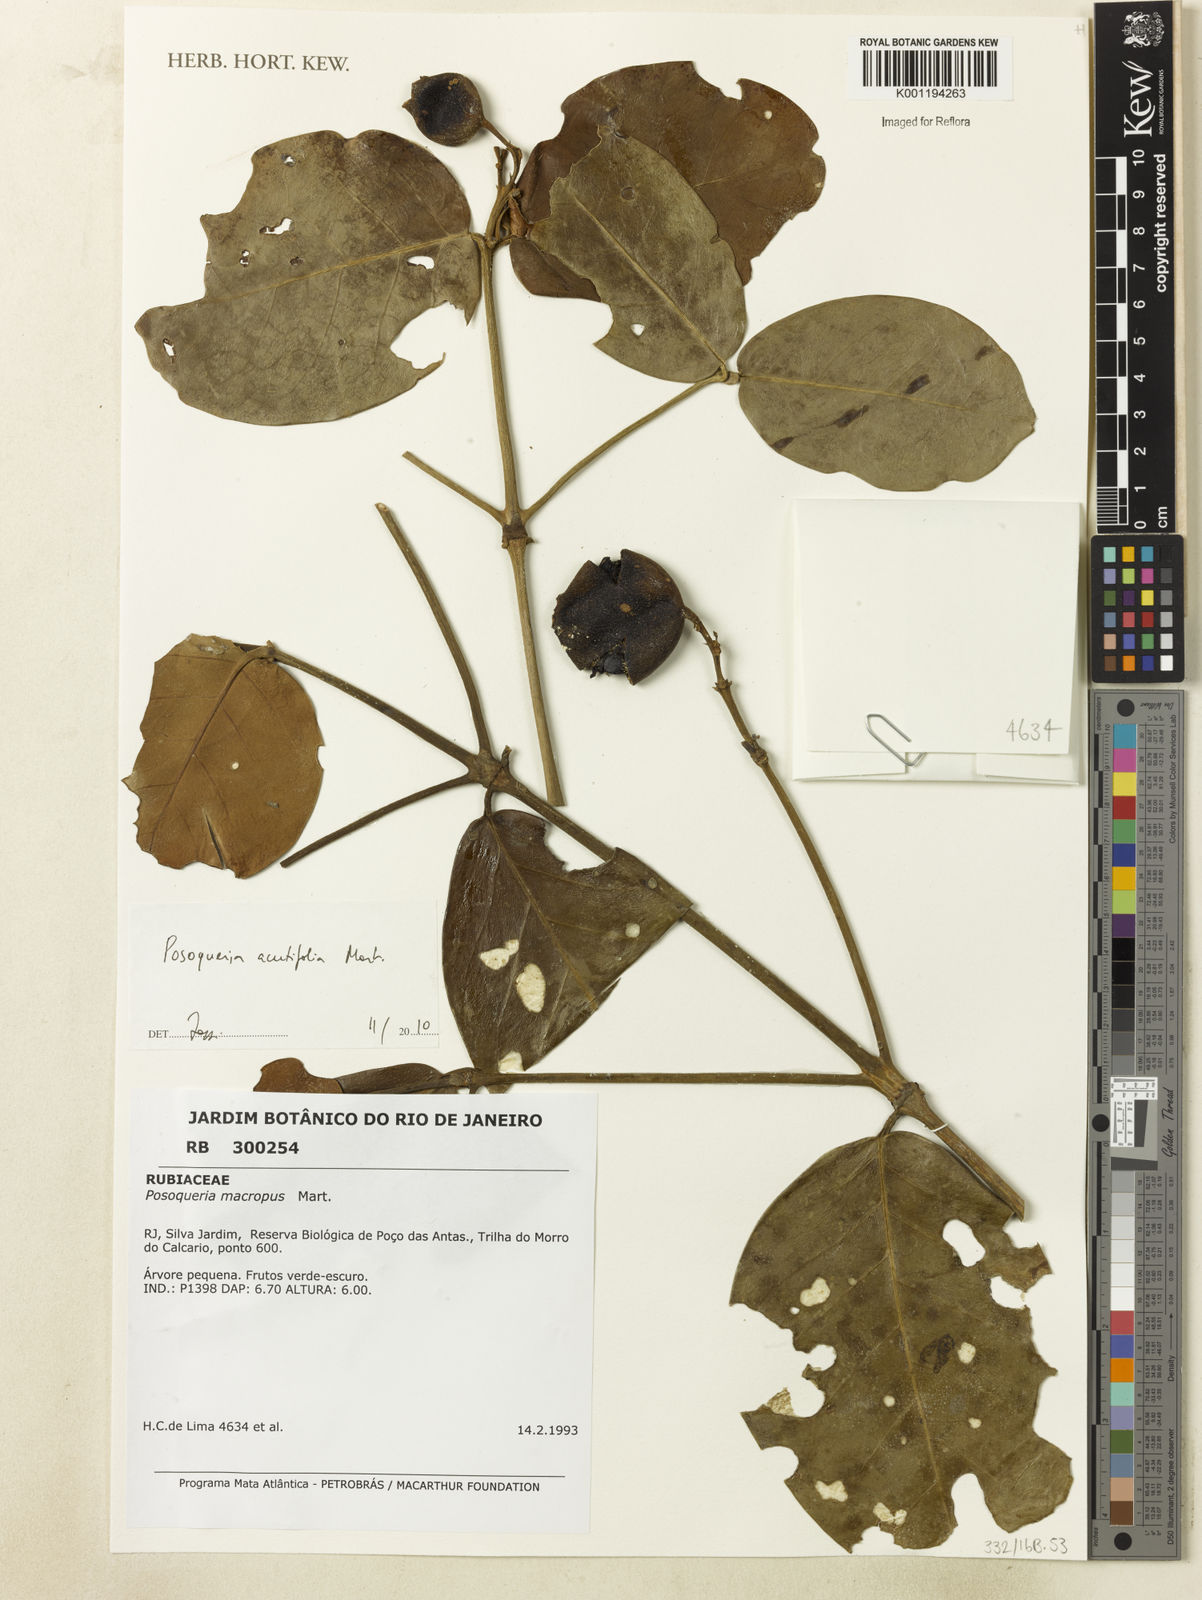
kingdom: Plantae
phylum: Tracheophyta
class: Magnoliopsida
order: Gentianales
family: Rubiaceae
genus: Posoqueria
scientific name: Posoqueria latifolia
